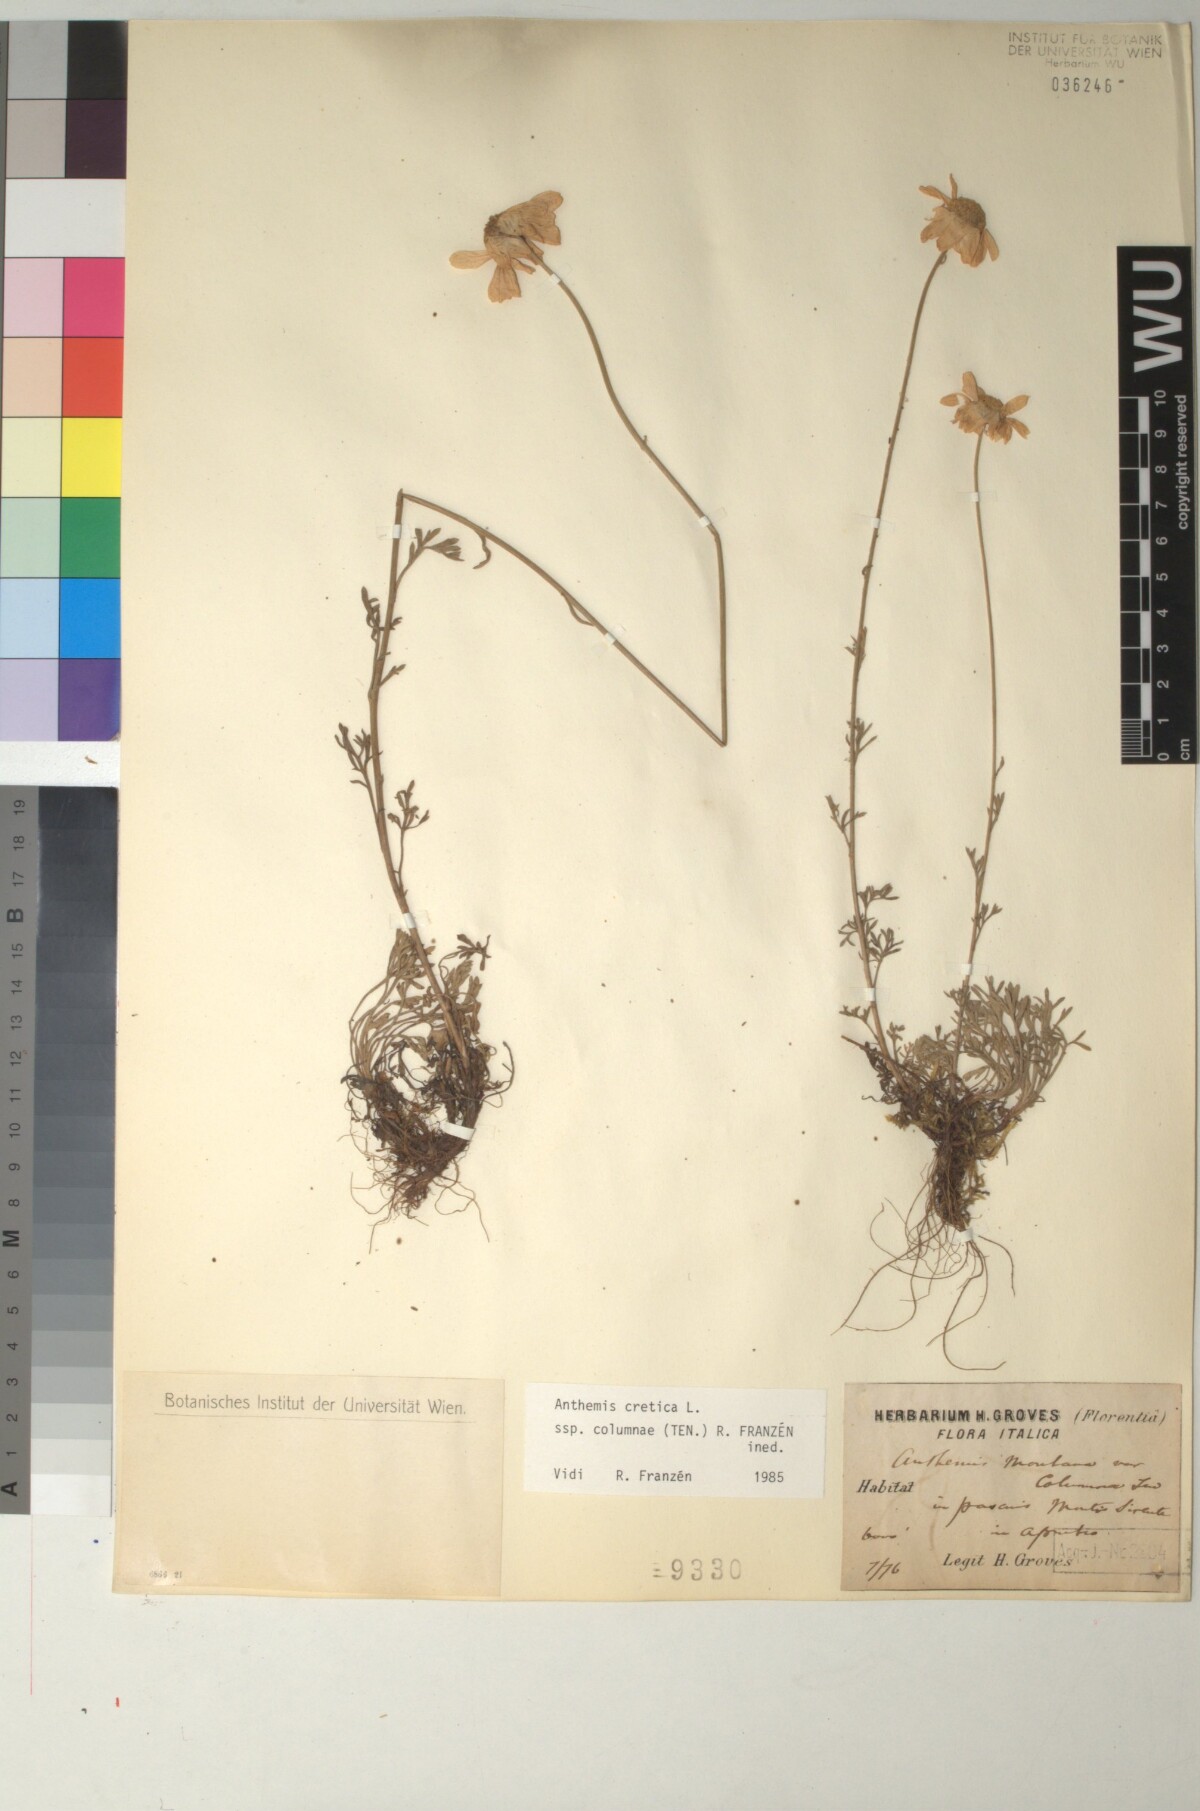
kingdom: Plantae
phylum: Tracheophyta
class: Magnoliopsida
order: Asterales
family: Asteraceae
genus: Anthemis
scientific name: Anthemis cretica
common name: Mountain dog-daisy
